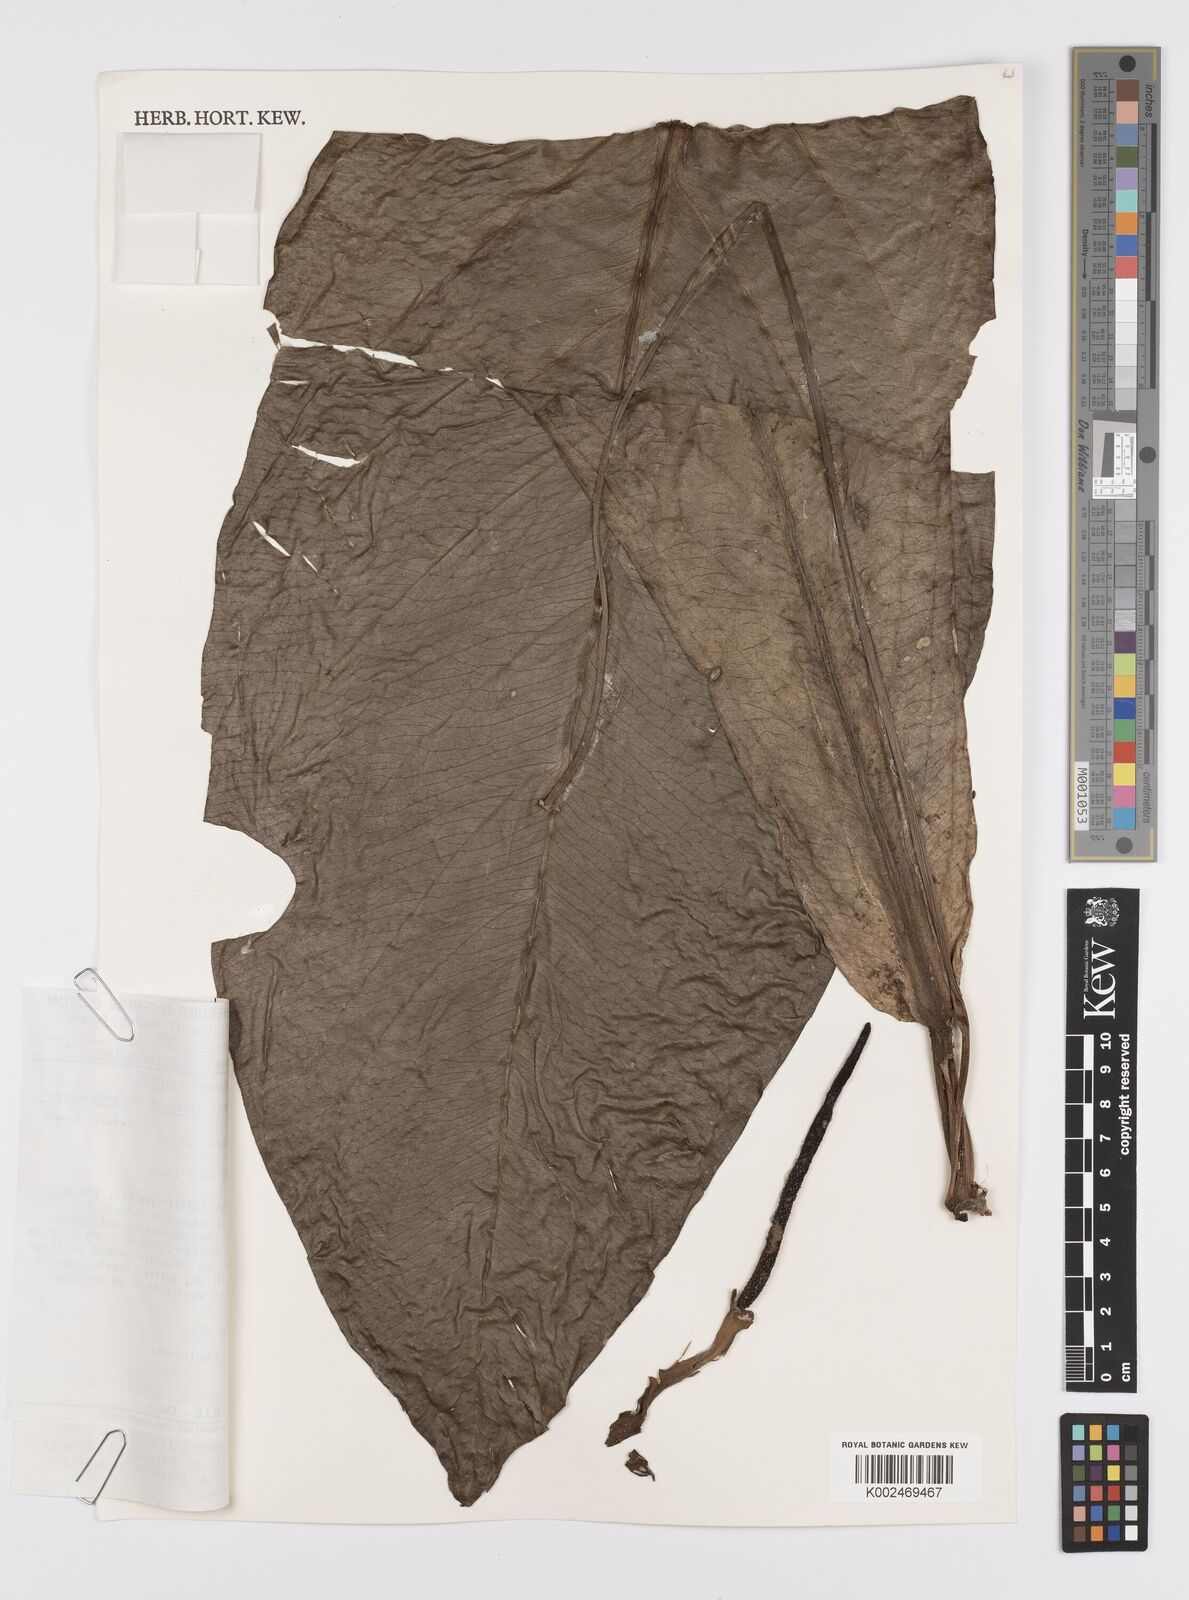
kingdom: Plantae
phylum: Tracheophyta
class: Liliopsida
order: Alismatales
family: Araceae
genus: Anthurium
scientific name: Anthurium hookeri
